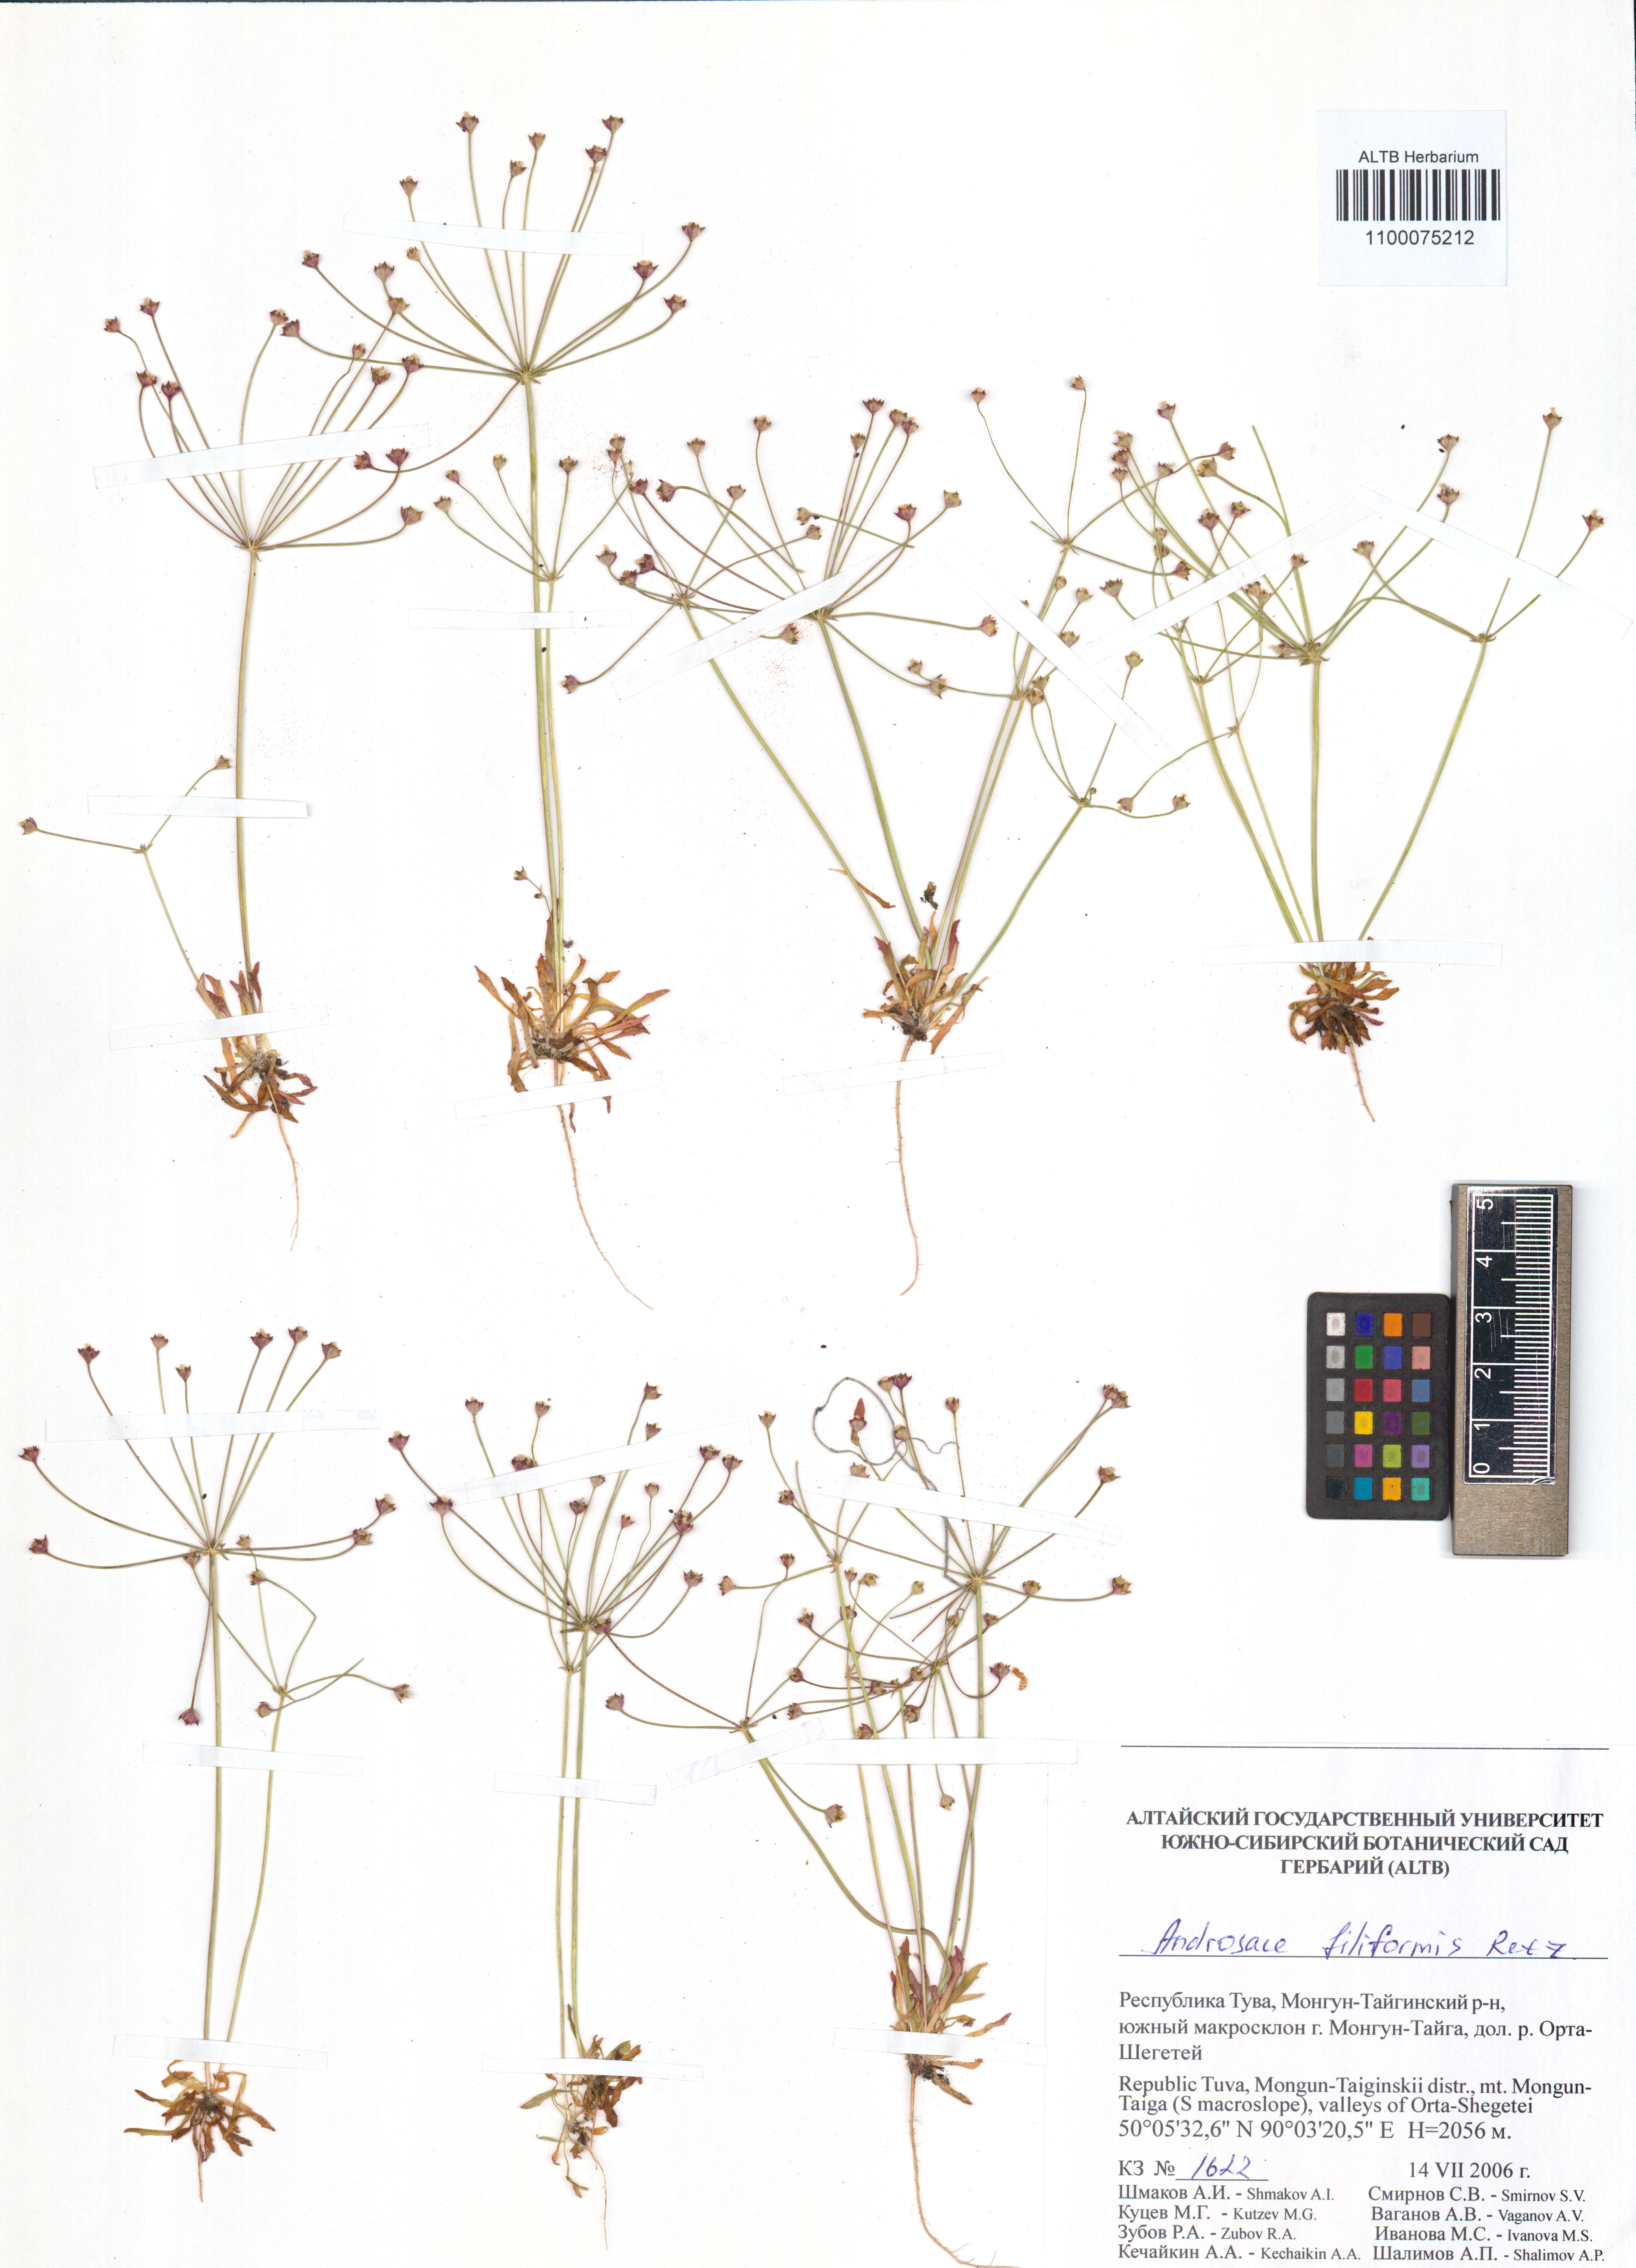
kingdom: Plantae
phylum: Tracheophyta
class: Magnoliopsida
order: Ericales
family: Primulaceae
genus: Androsace
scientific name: Androsace filiformis
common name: Filiform rock jasmine
